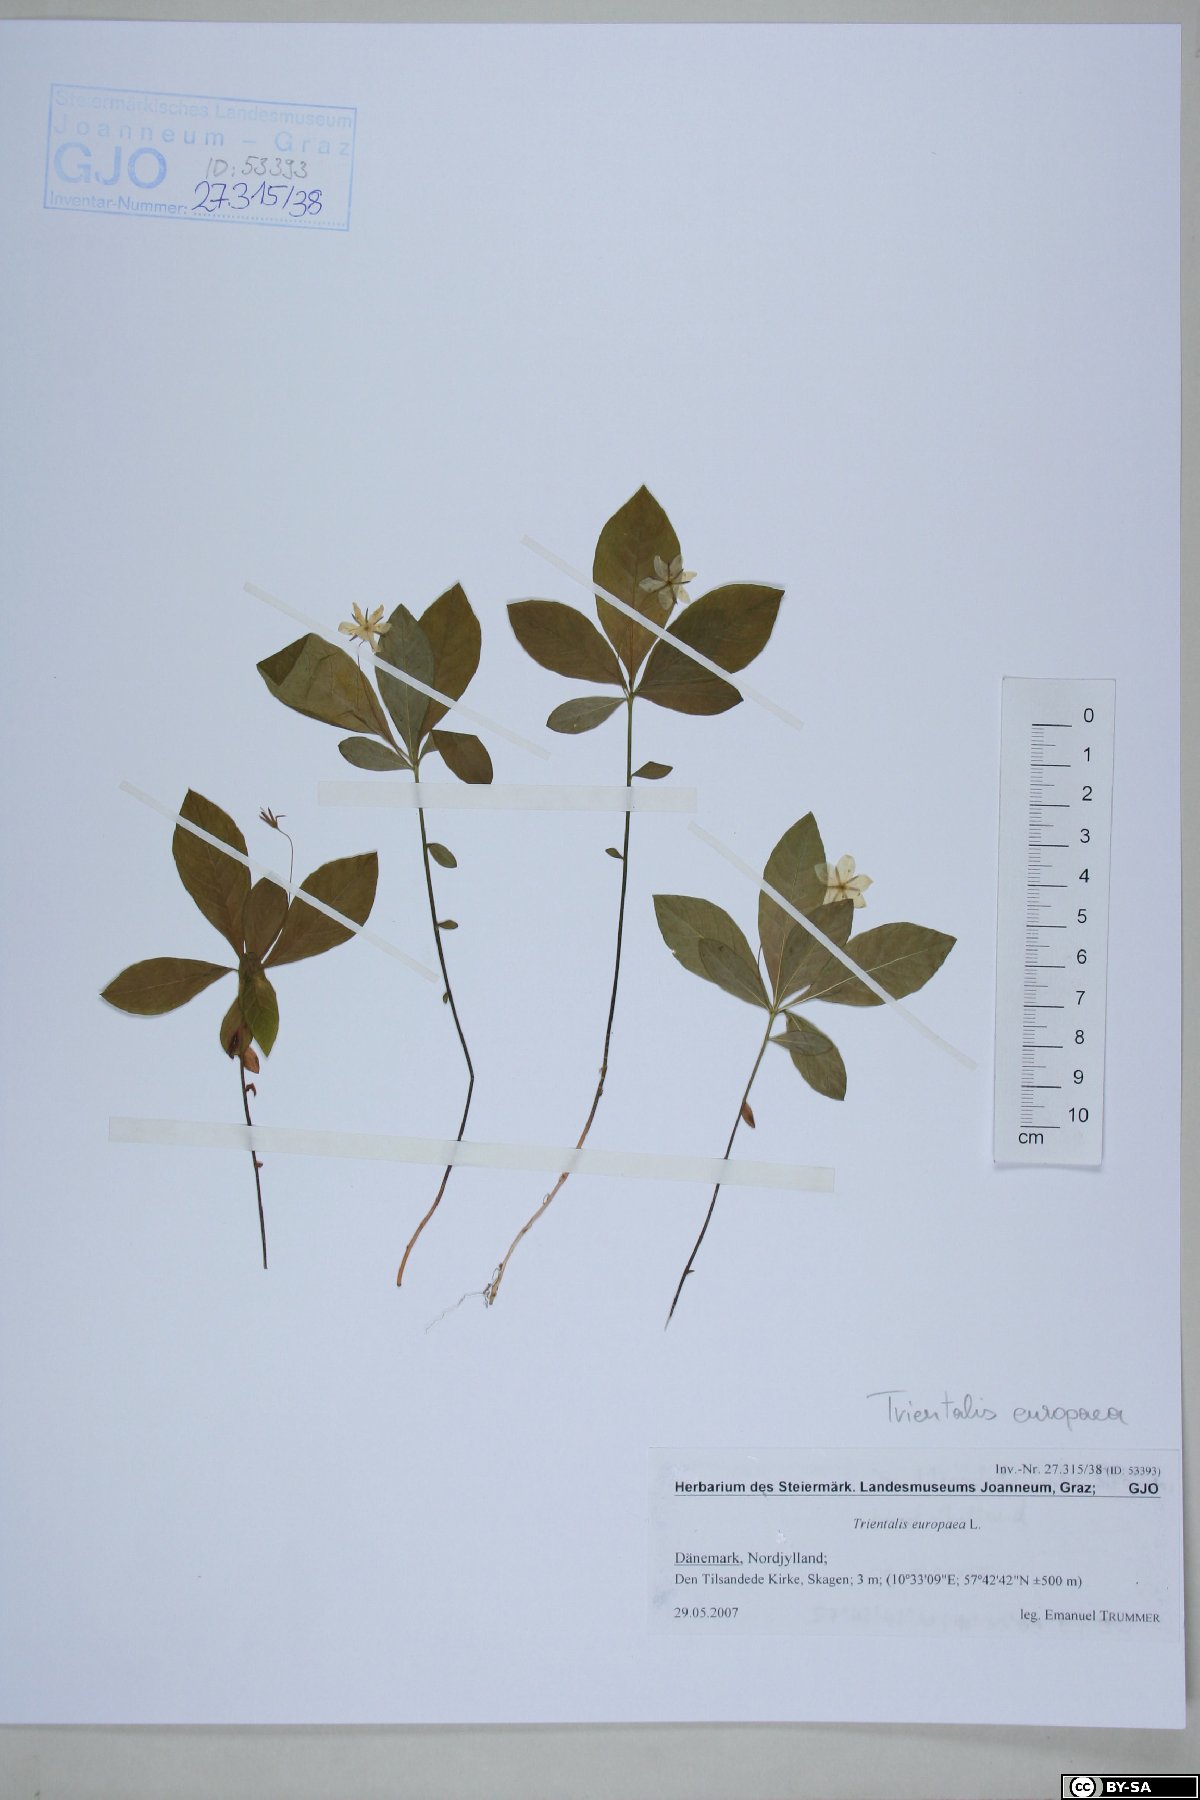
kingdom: Plantae
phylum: Tracheophyta
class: Magnoliopsida
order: Ericales
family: Primulaceae
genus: Lysimachia
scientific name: Lysimachia europaea
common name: Arctic starflower
